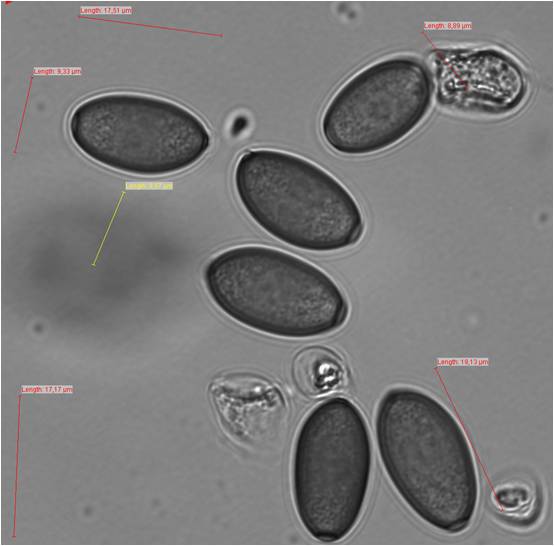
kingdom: Fungi
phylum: Basidiomycota
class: Agaricomycetes
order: Agaricales
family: Strophariaceae
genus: Protostropharia
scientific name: Protostropharia semiglobata
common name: halvkugleformet bredblad
